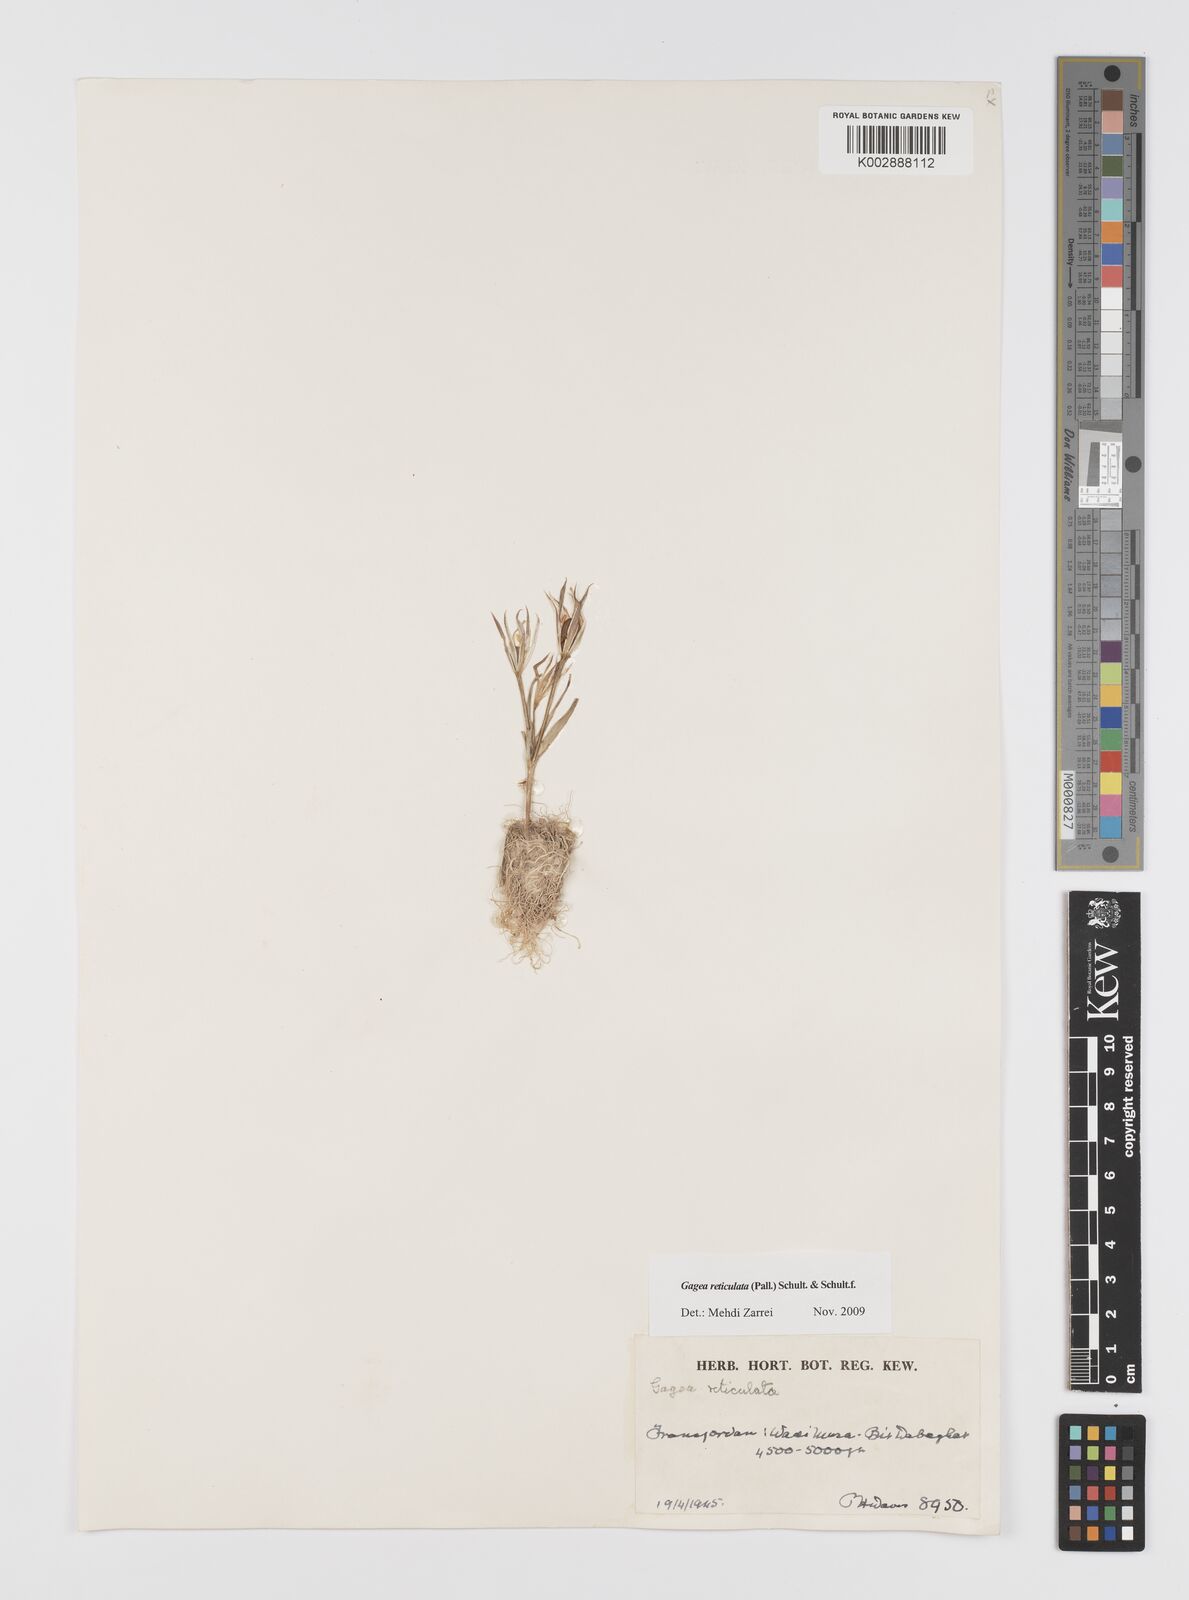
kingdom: Plantae
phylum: Tracheophyta
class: Liliopsida
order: Liliales
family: Liliaceae
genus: Gagea
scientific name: Gagea reticulata
